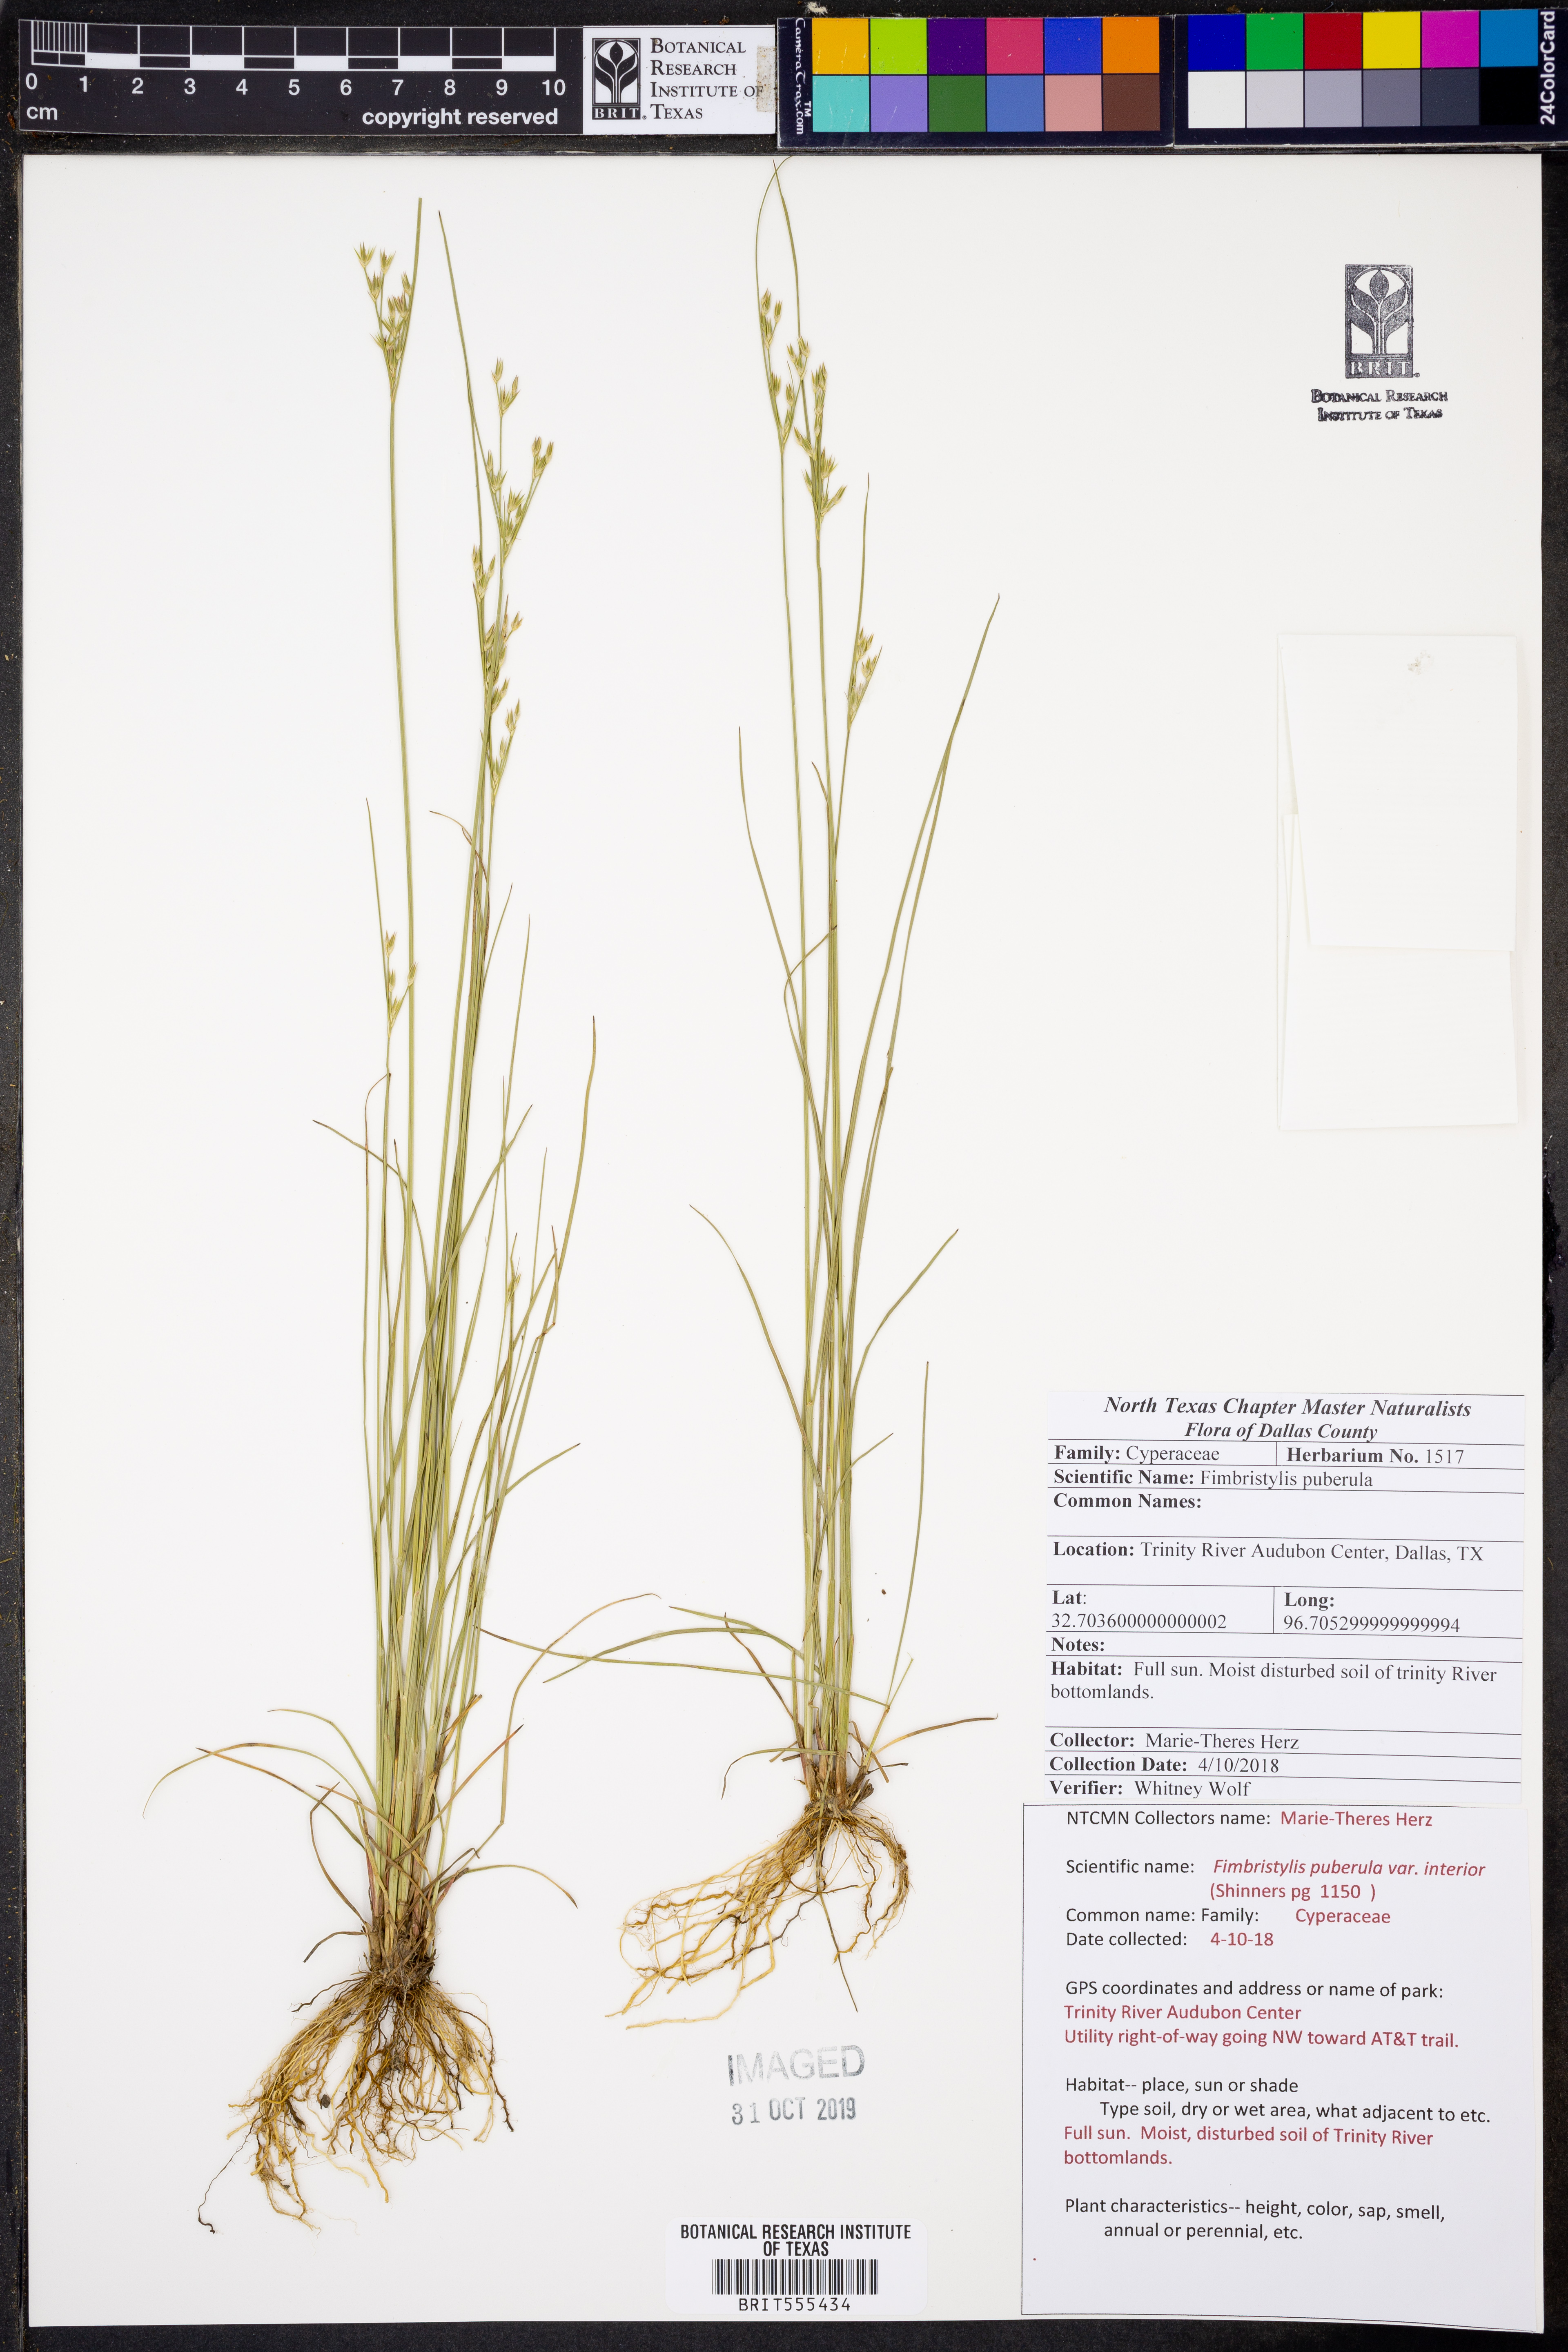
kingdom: Plantae
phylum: Tracheophyta
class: Liliopsida
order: Poales
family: Cyperaceae
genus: Fimbristylis
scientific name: Fimbristylis puberula
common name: Hairy fimbristylis
